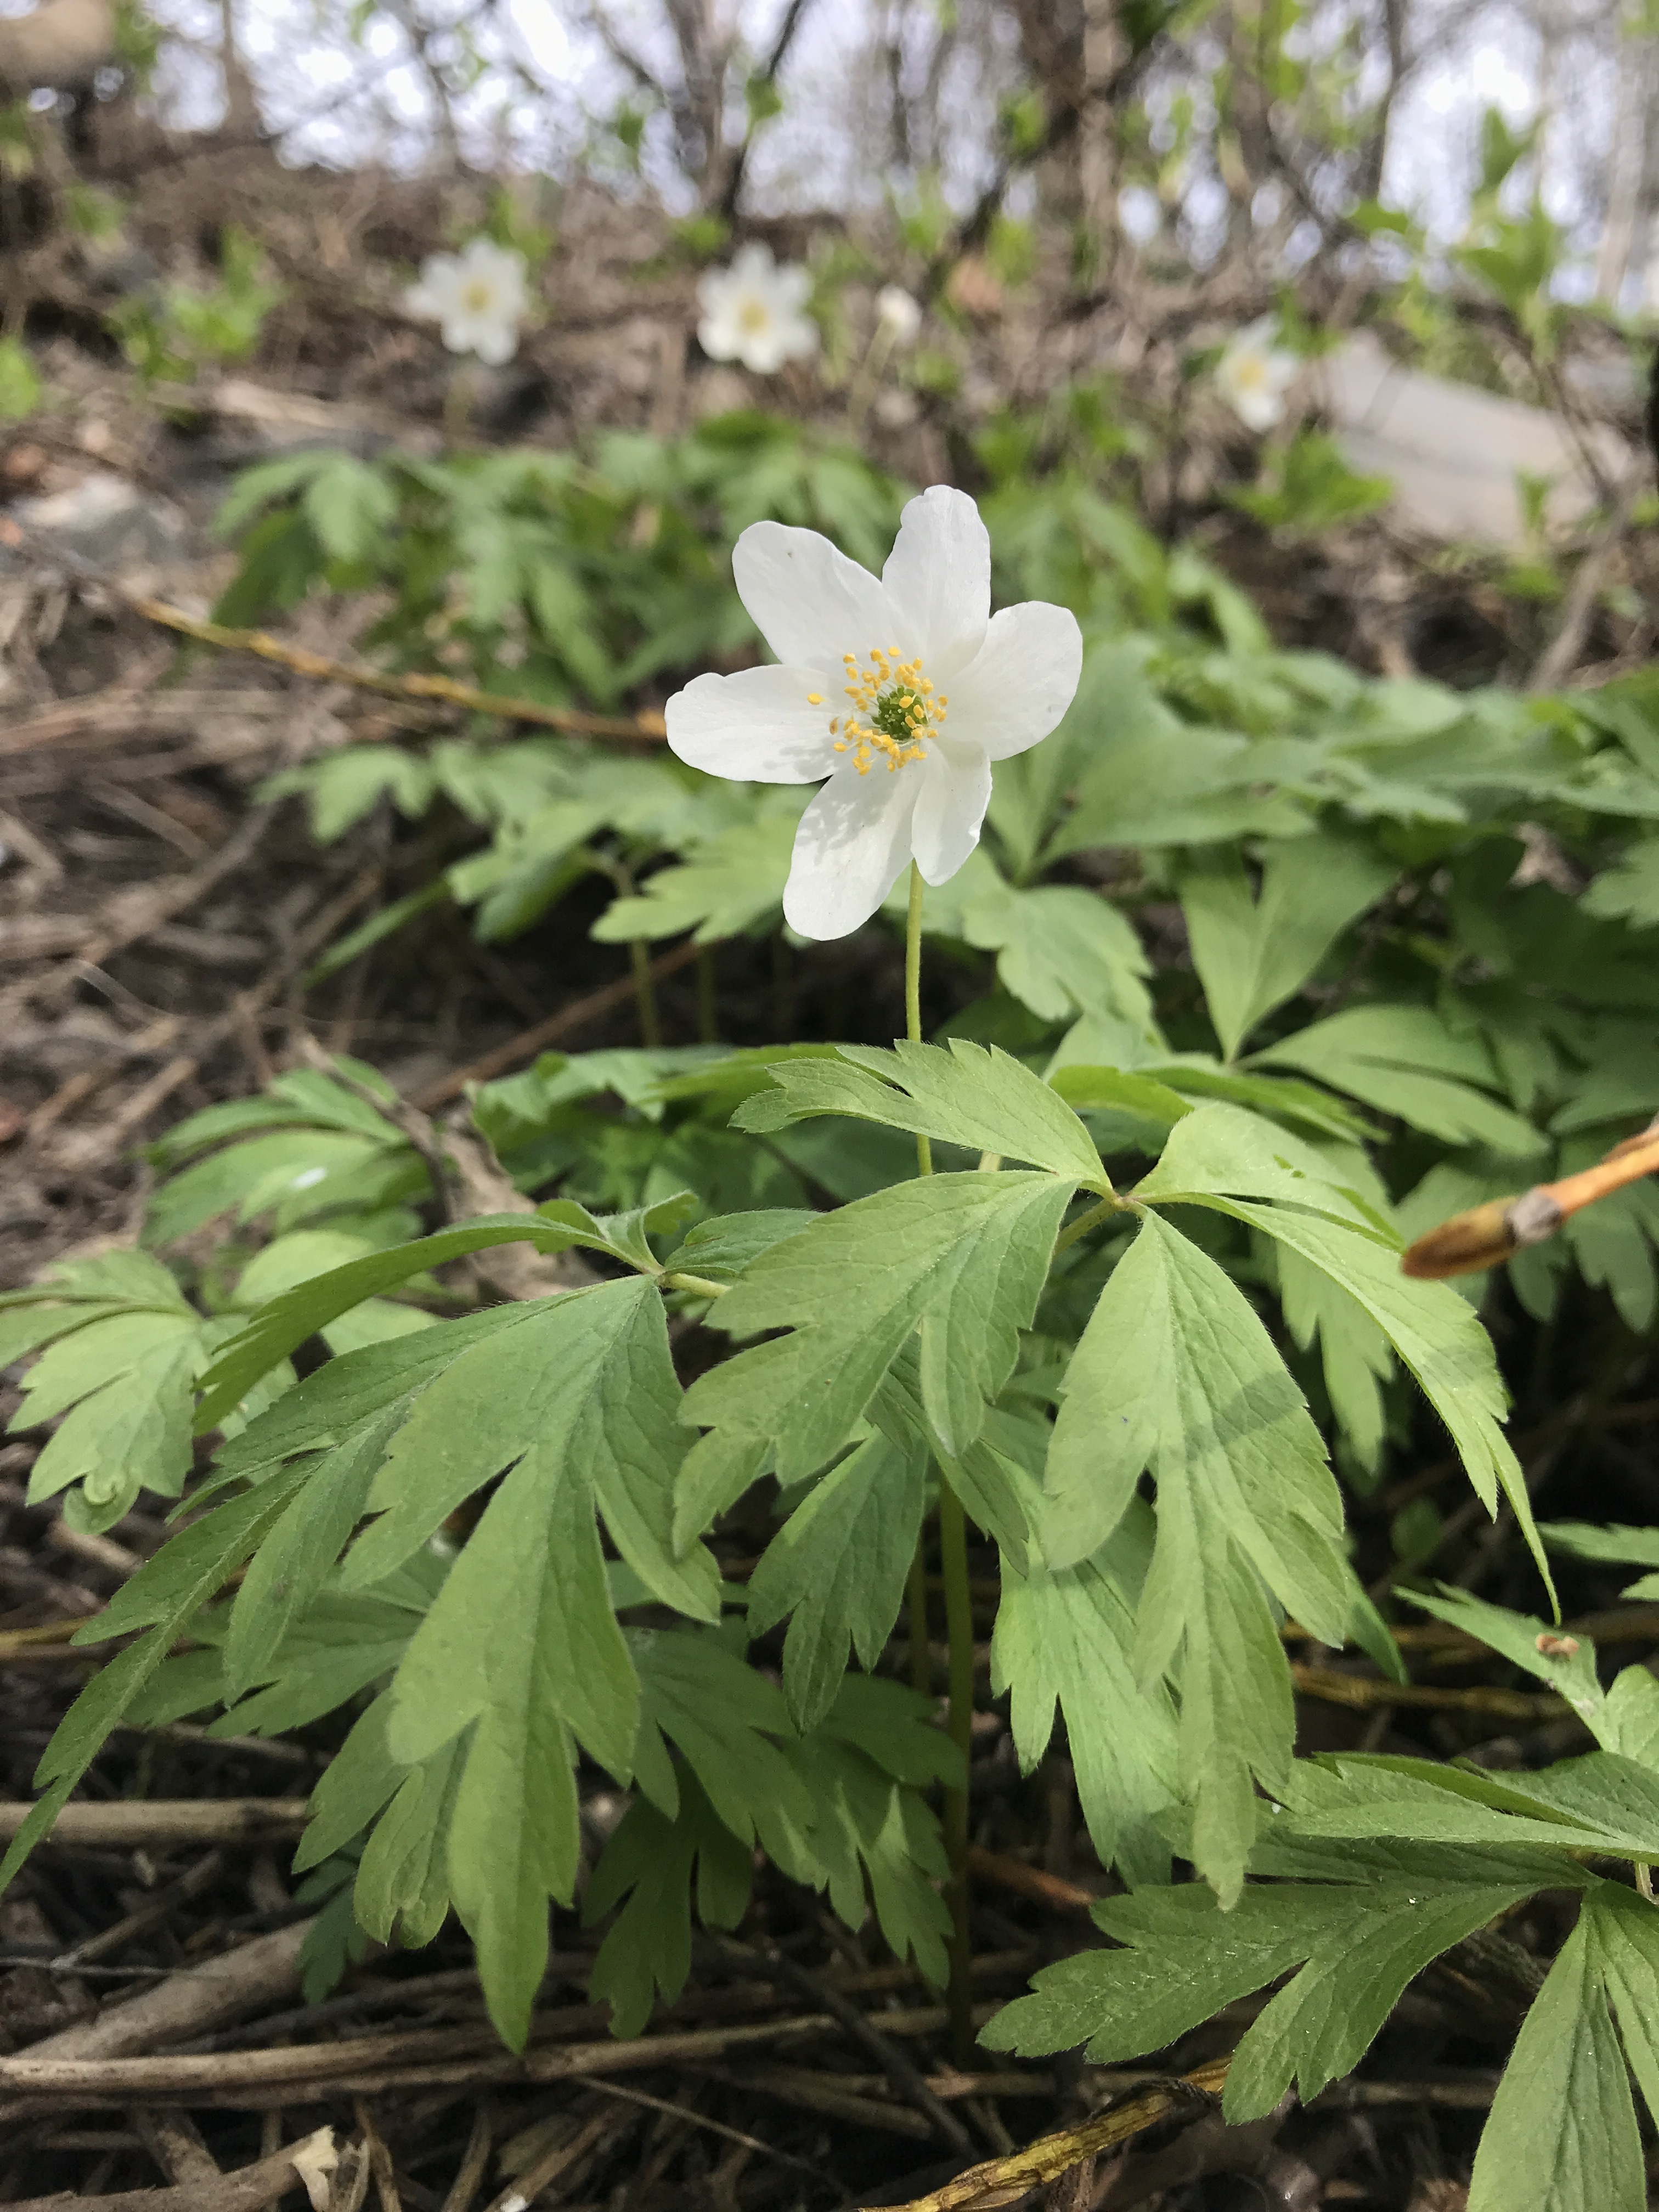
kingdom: Plantae
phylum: Tracheophyta
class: Magnoliopsida
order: Ranunculales
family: Ranunculaceae
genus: Anemone
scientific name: Anemone nemorosa
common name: Wood anemone
